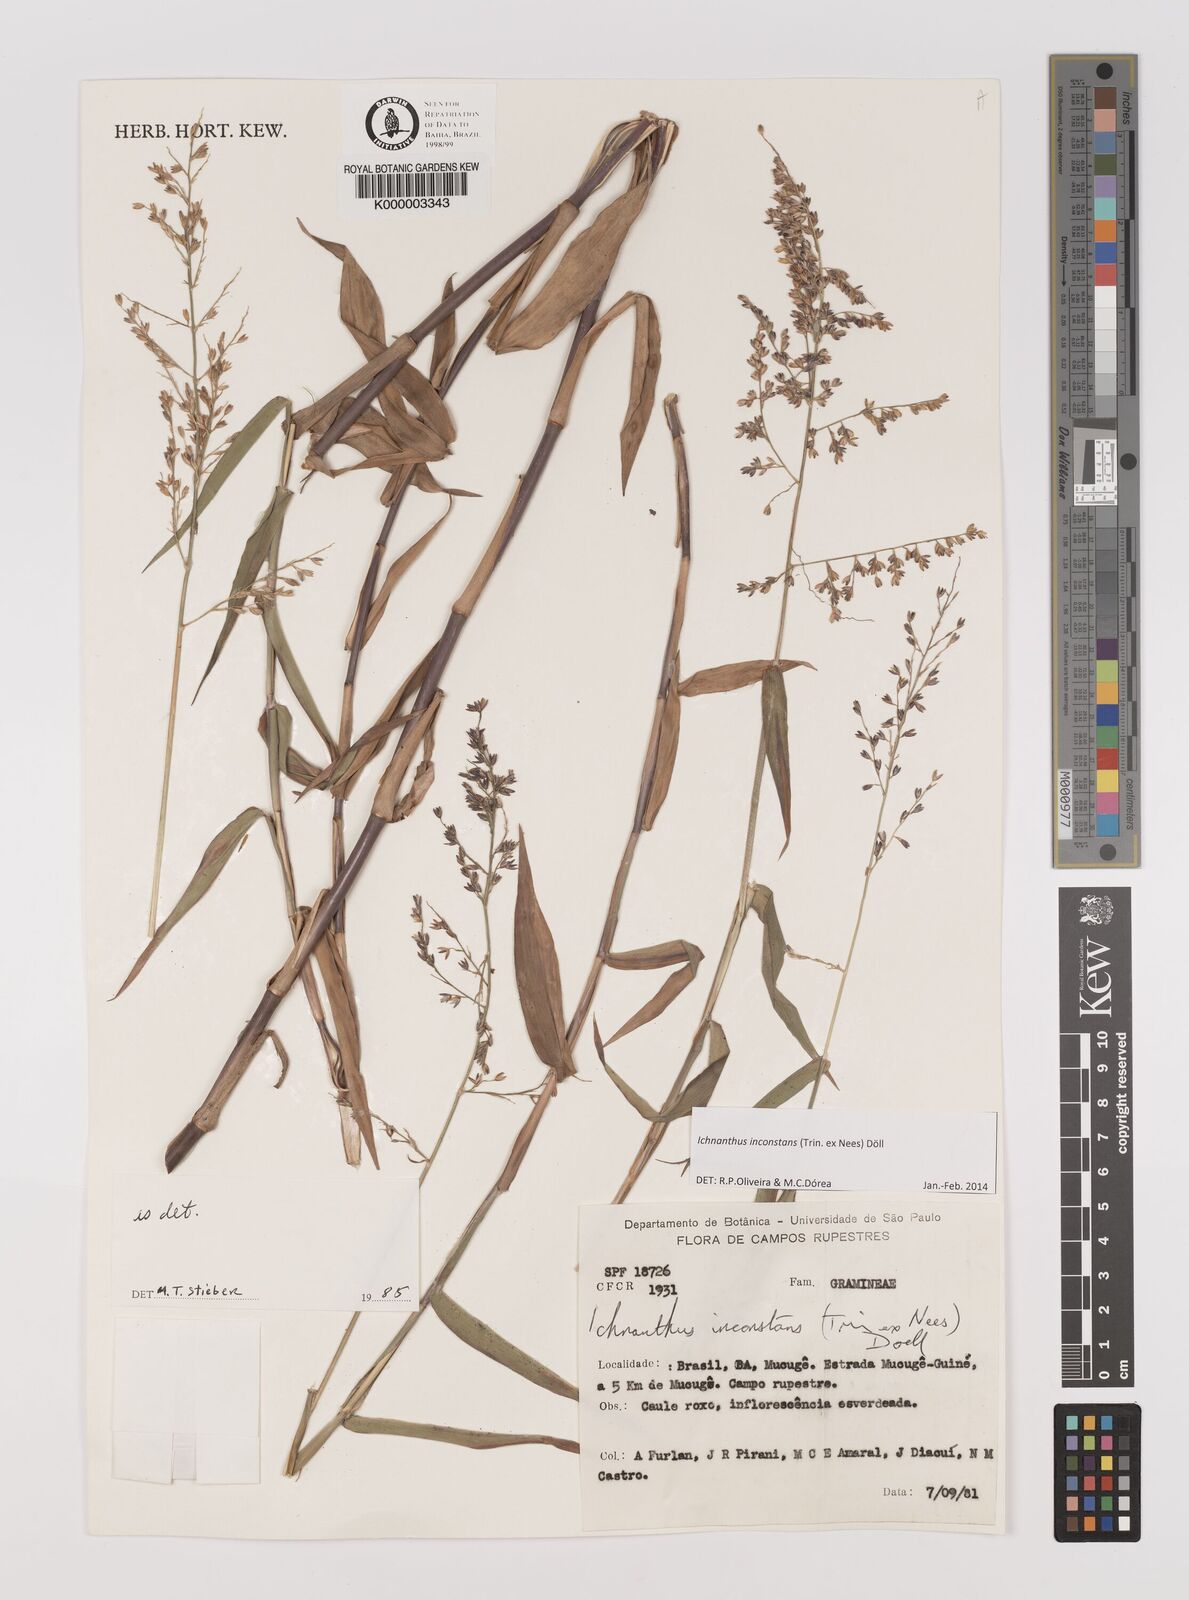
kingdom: Plantae
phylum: Tracheophyta
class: Liliopsida
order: Poales
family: Poaceae
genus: Ichnanthus
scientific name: Ichnanthus
